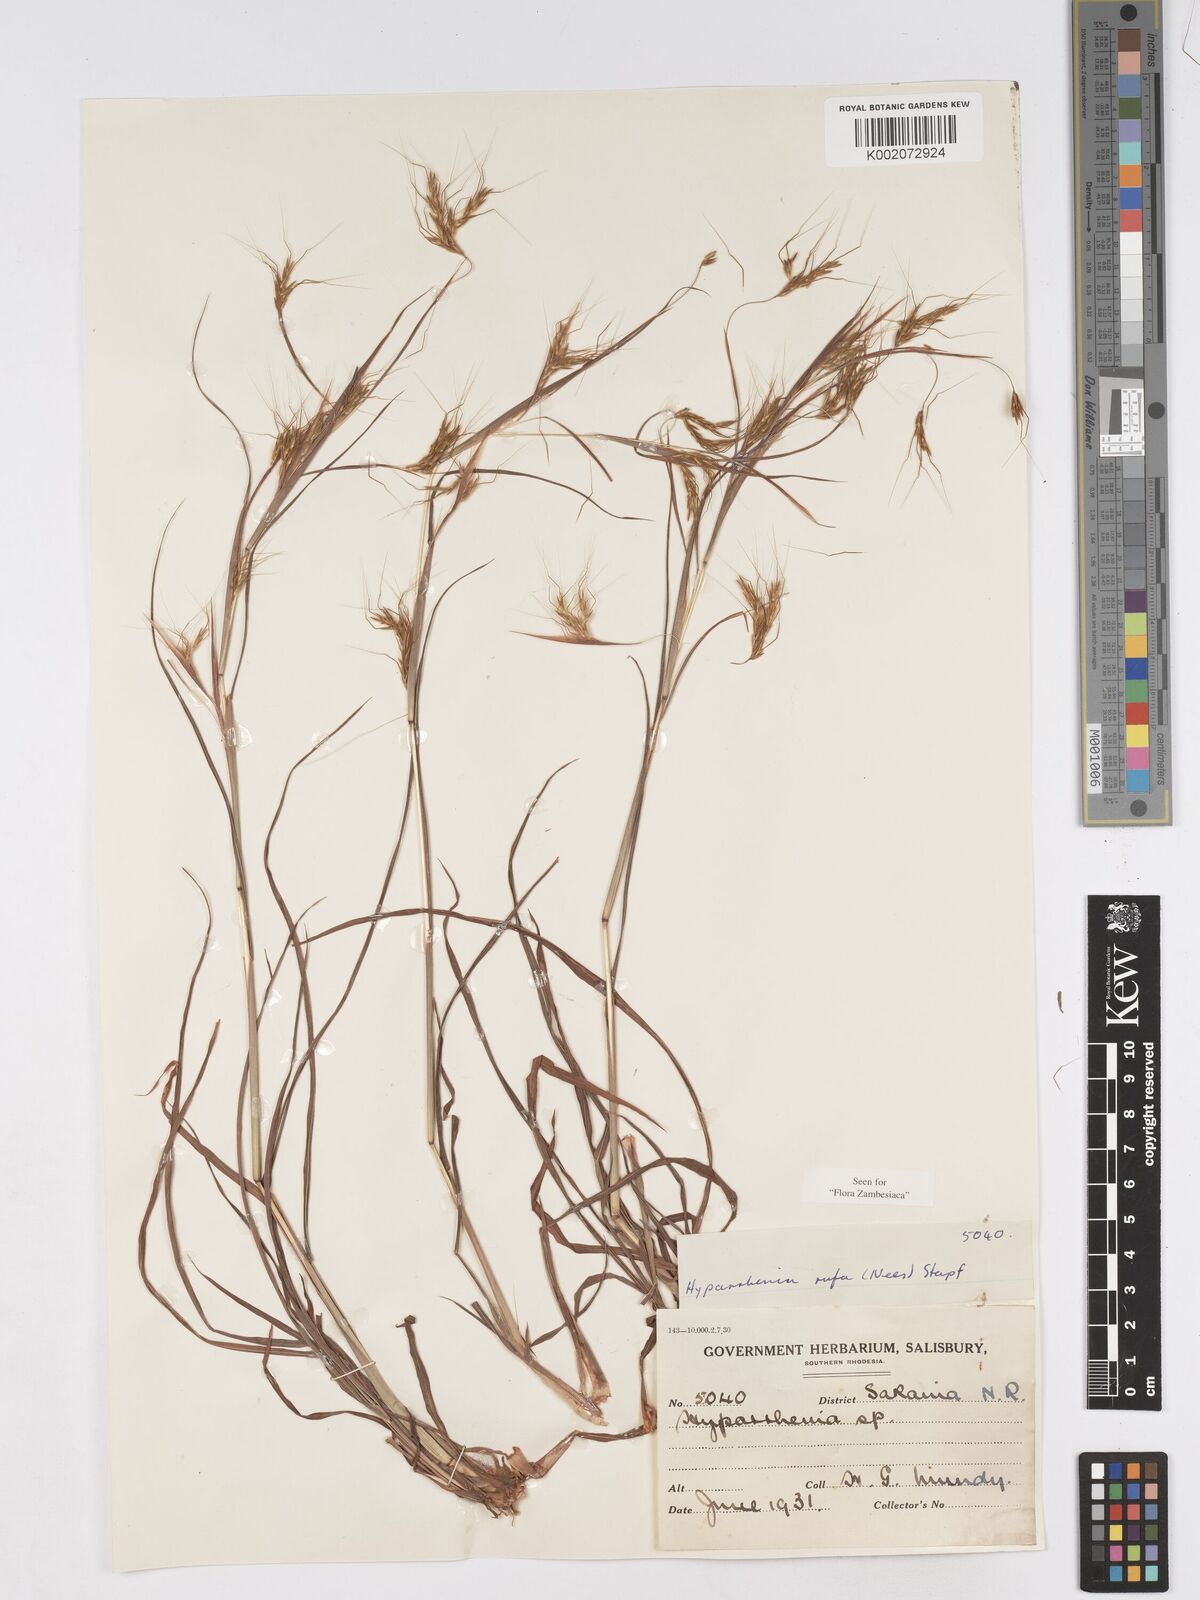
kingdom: Plantae
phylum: Tracheophyta
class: Liliopsida
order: Poales
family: Poaceae
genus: Hyparrhenia
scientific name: Hyparrhenia rufa
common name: Jaraguagrass
